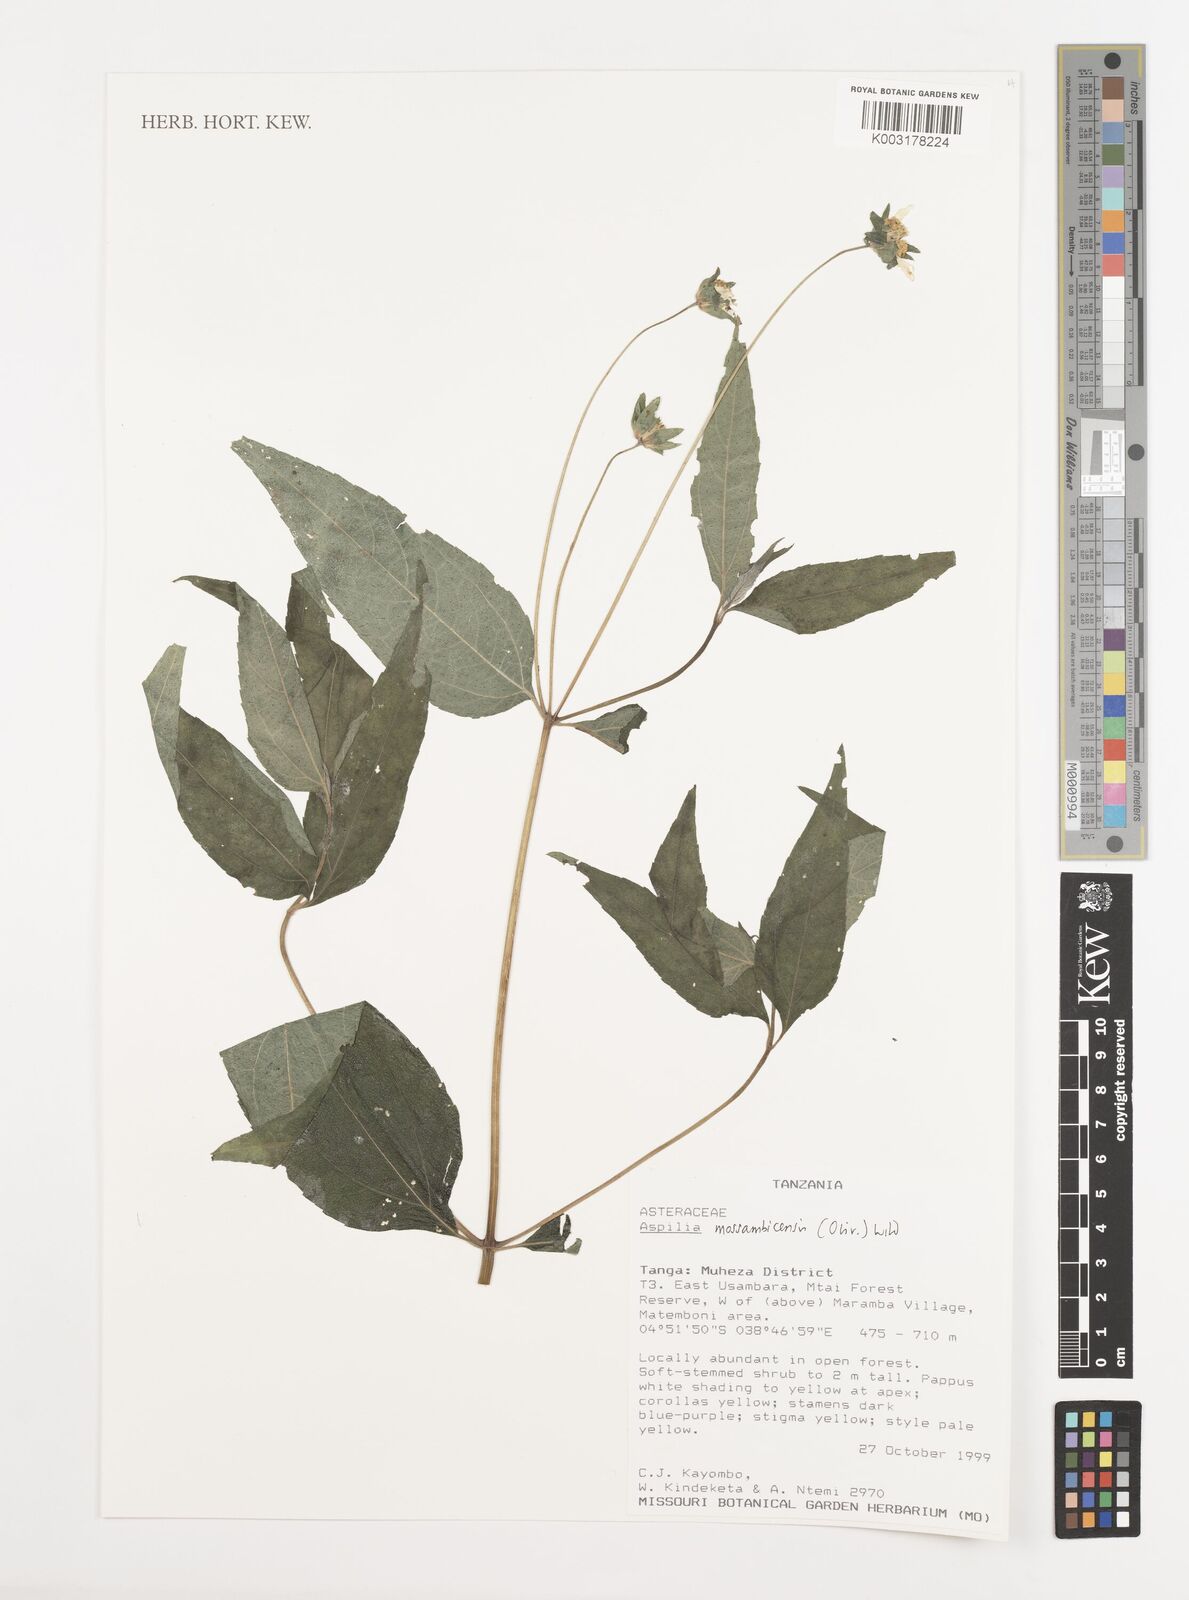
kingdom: Plantae
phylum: Tracheophyta
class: Magnoliopsida
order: Asterales
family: Asteraceae
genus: Aspilia
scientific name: Aspilia mossambicensis
